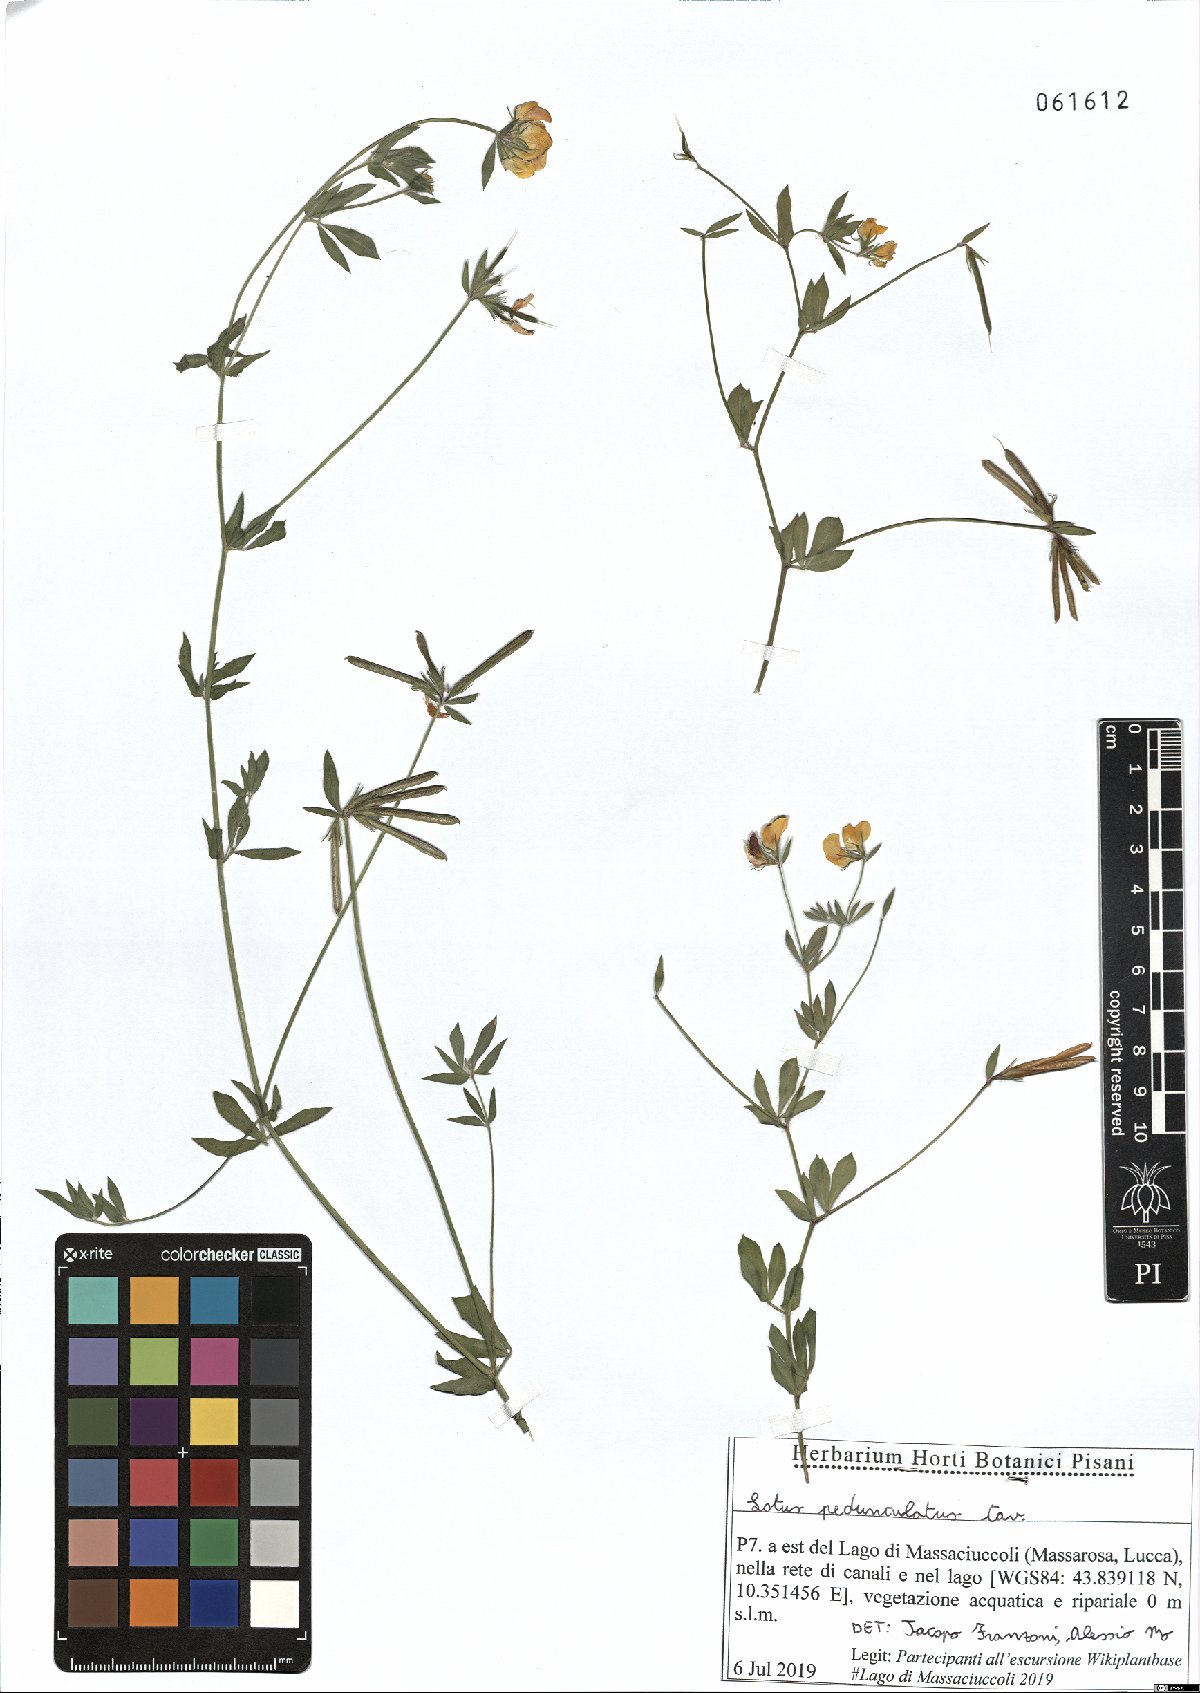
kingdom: Plantae
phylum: Tracheophyta
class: Magnoliopsida
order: Fabales
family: Fabaceae
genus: Lotus
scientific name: Lotus pedunculatus
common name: Greater birdsfoot-trefoil
